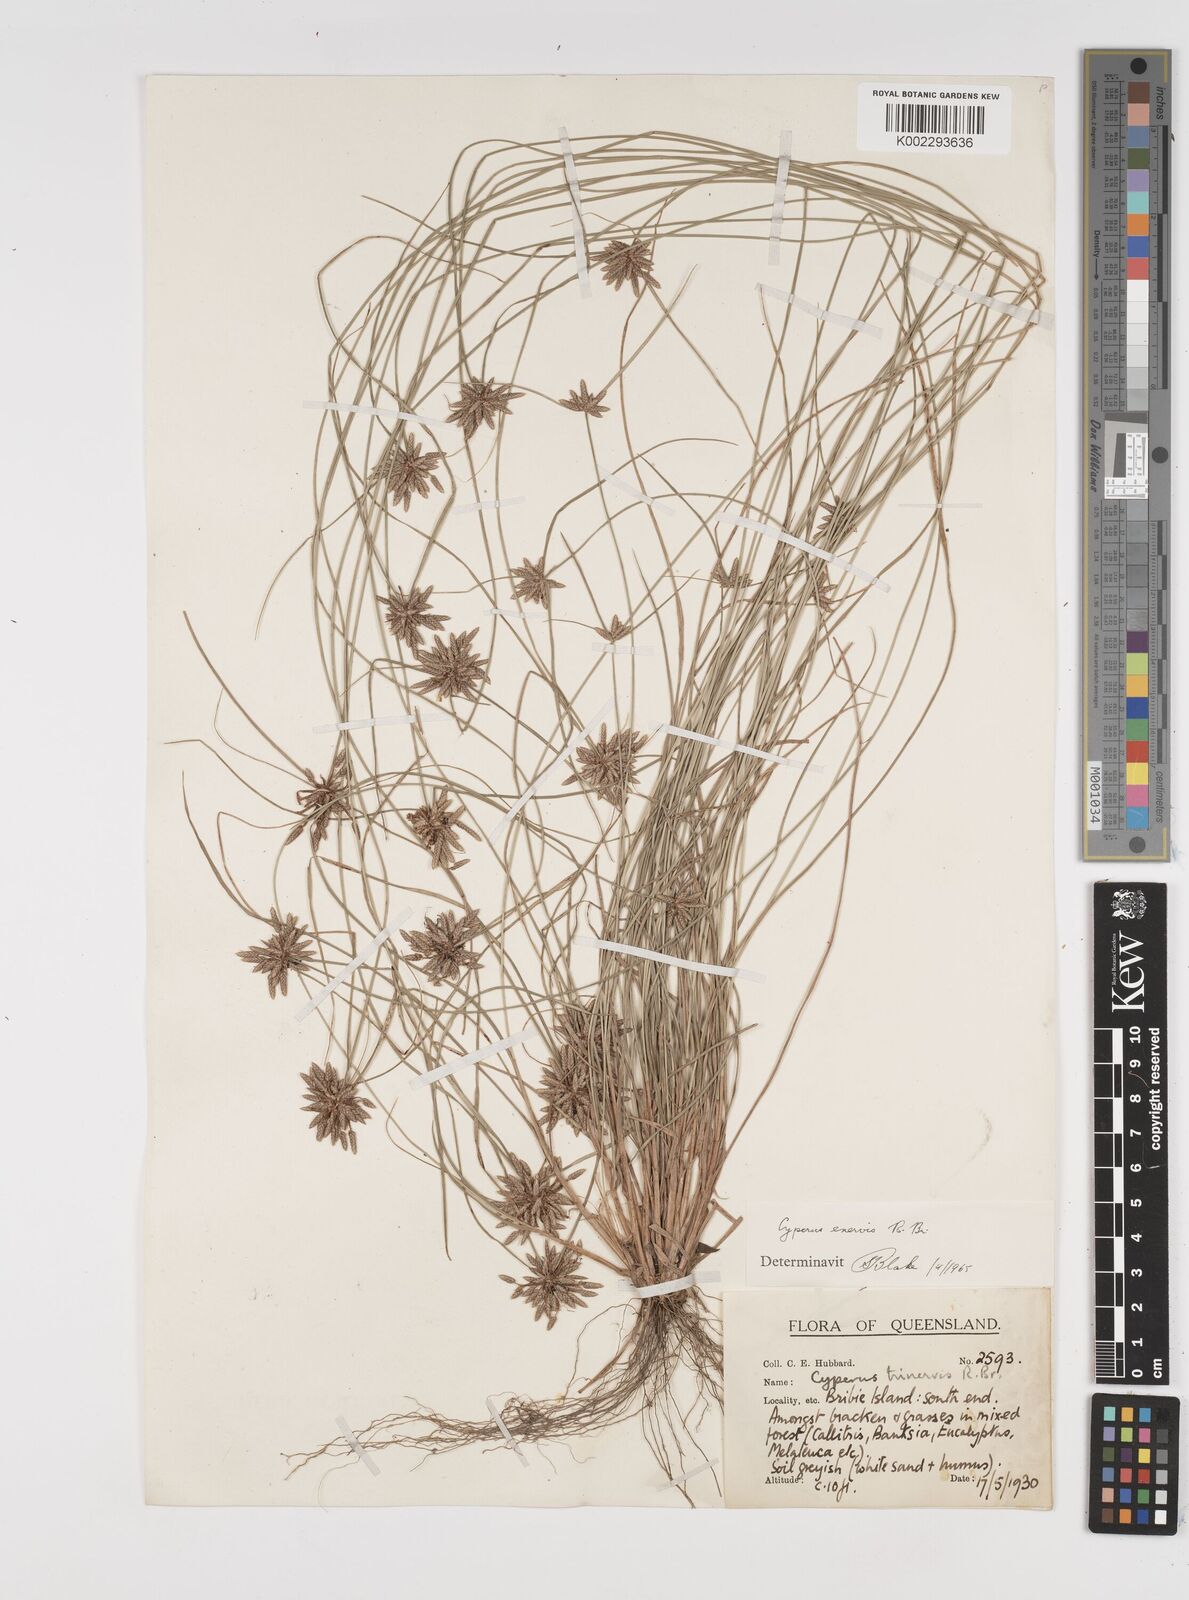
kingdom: Plantae
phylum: Tracheophyta
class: Liliopsida
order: Poales
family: Cyperaceae
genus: Cyperus
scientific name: Cyperus enervis
